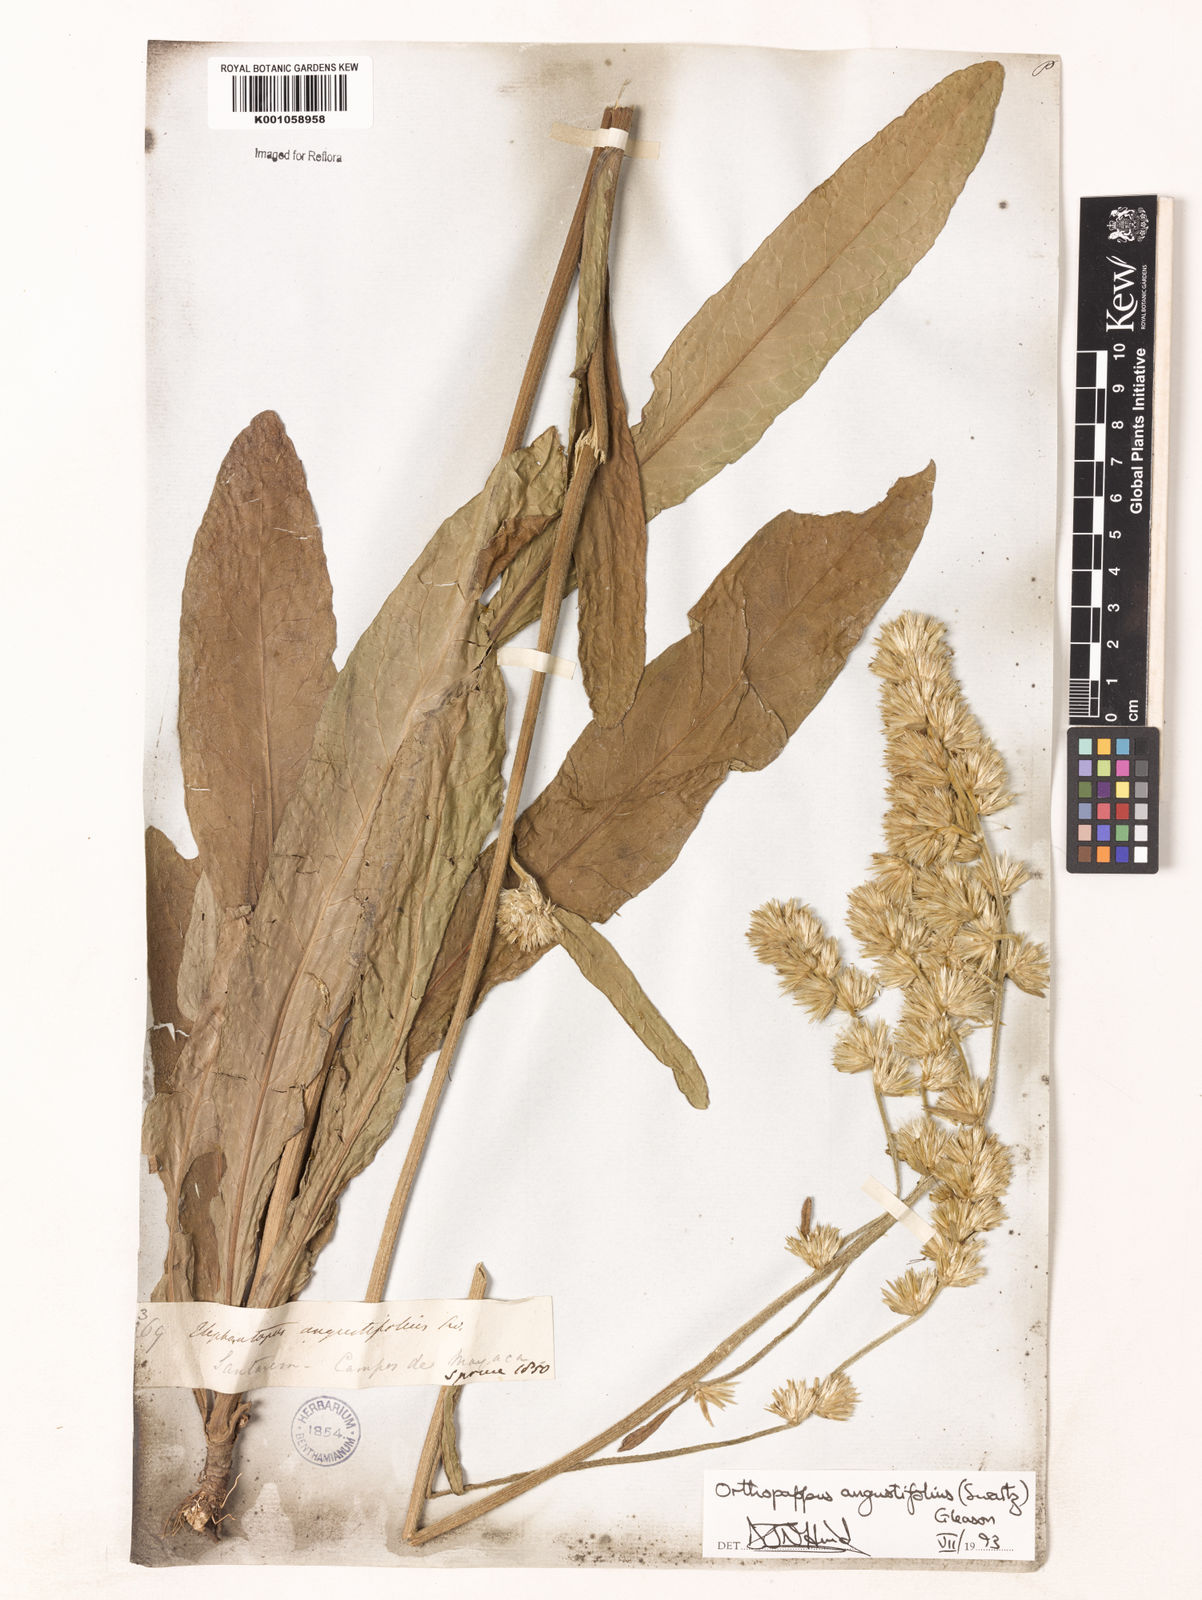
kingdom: Plantae
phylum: Tracheophyta
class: Magnoliopsida
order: Asterales
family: Asteraceae
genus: Orthopappus
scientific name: Orthopappus angustifolius
